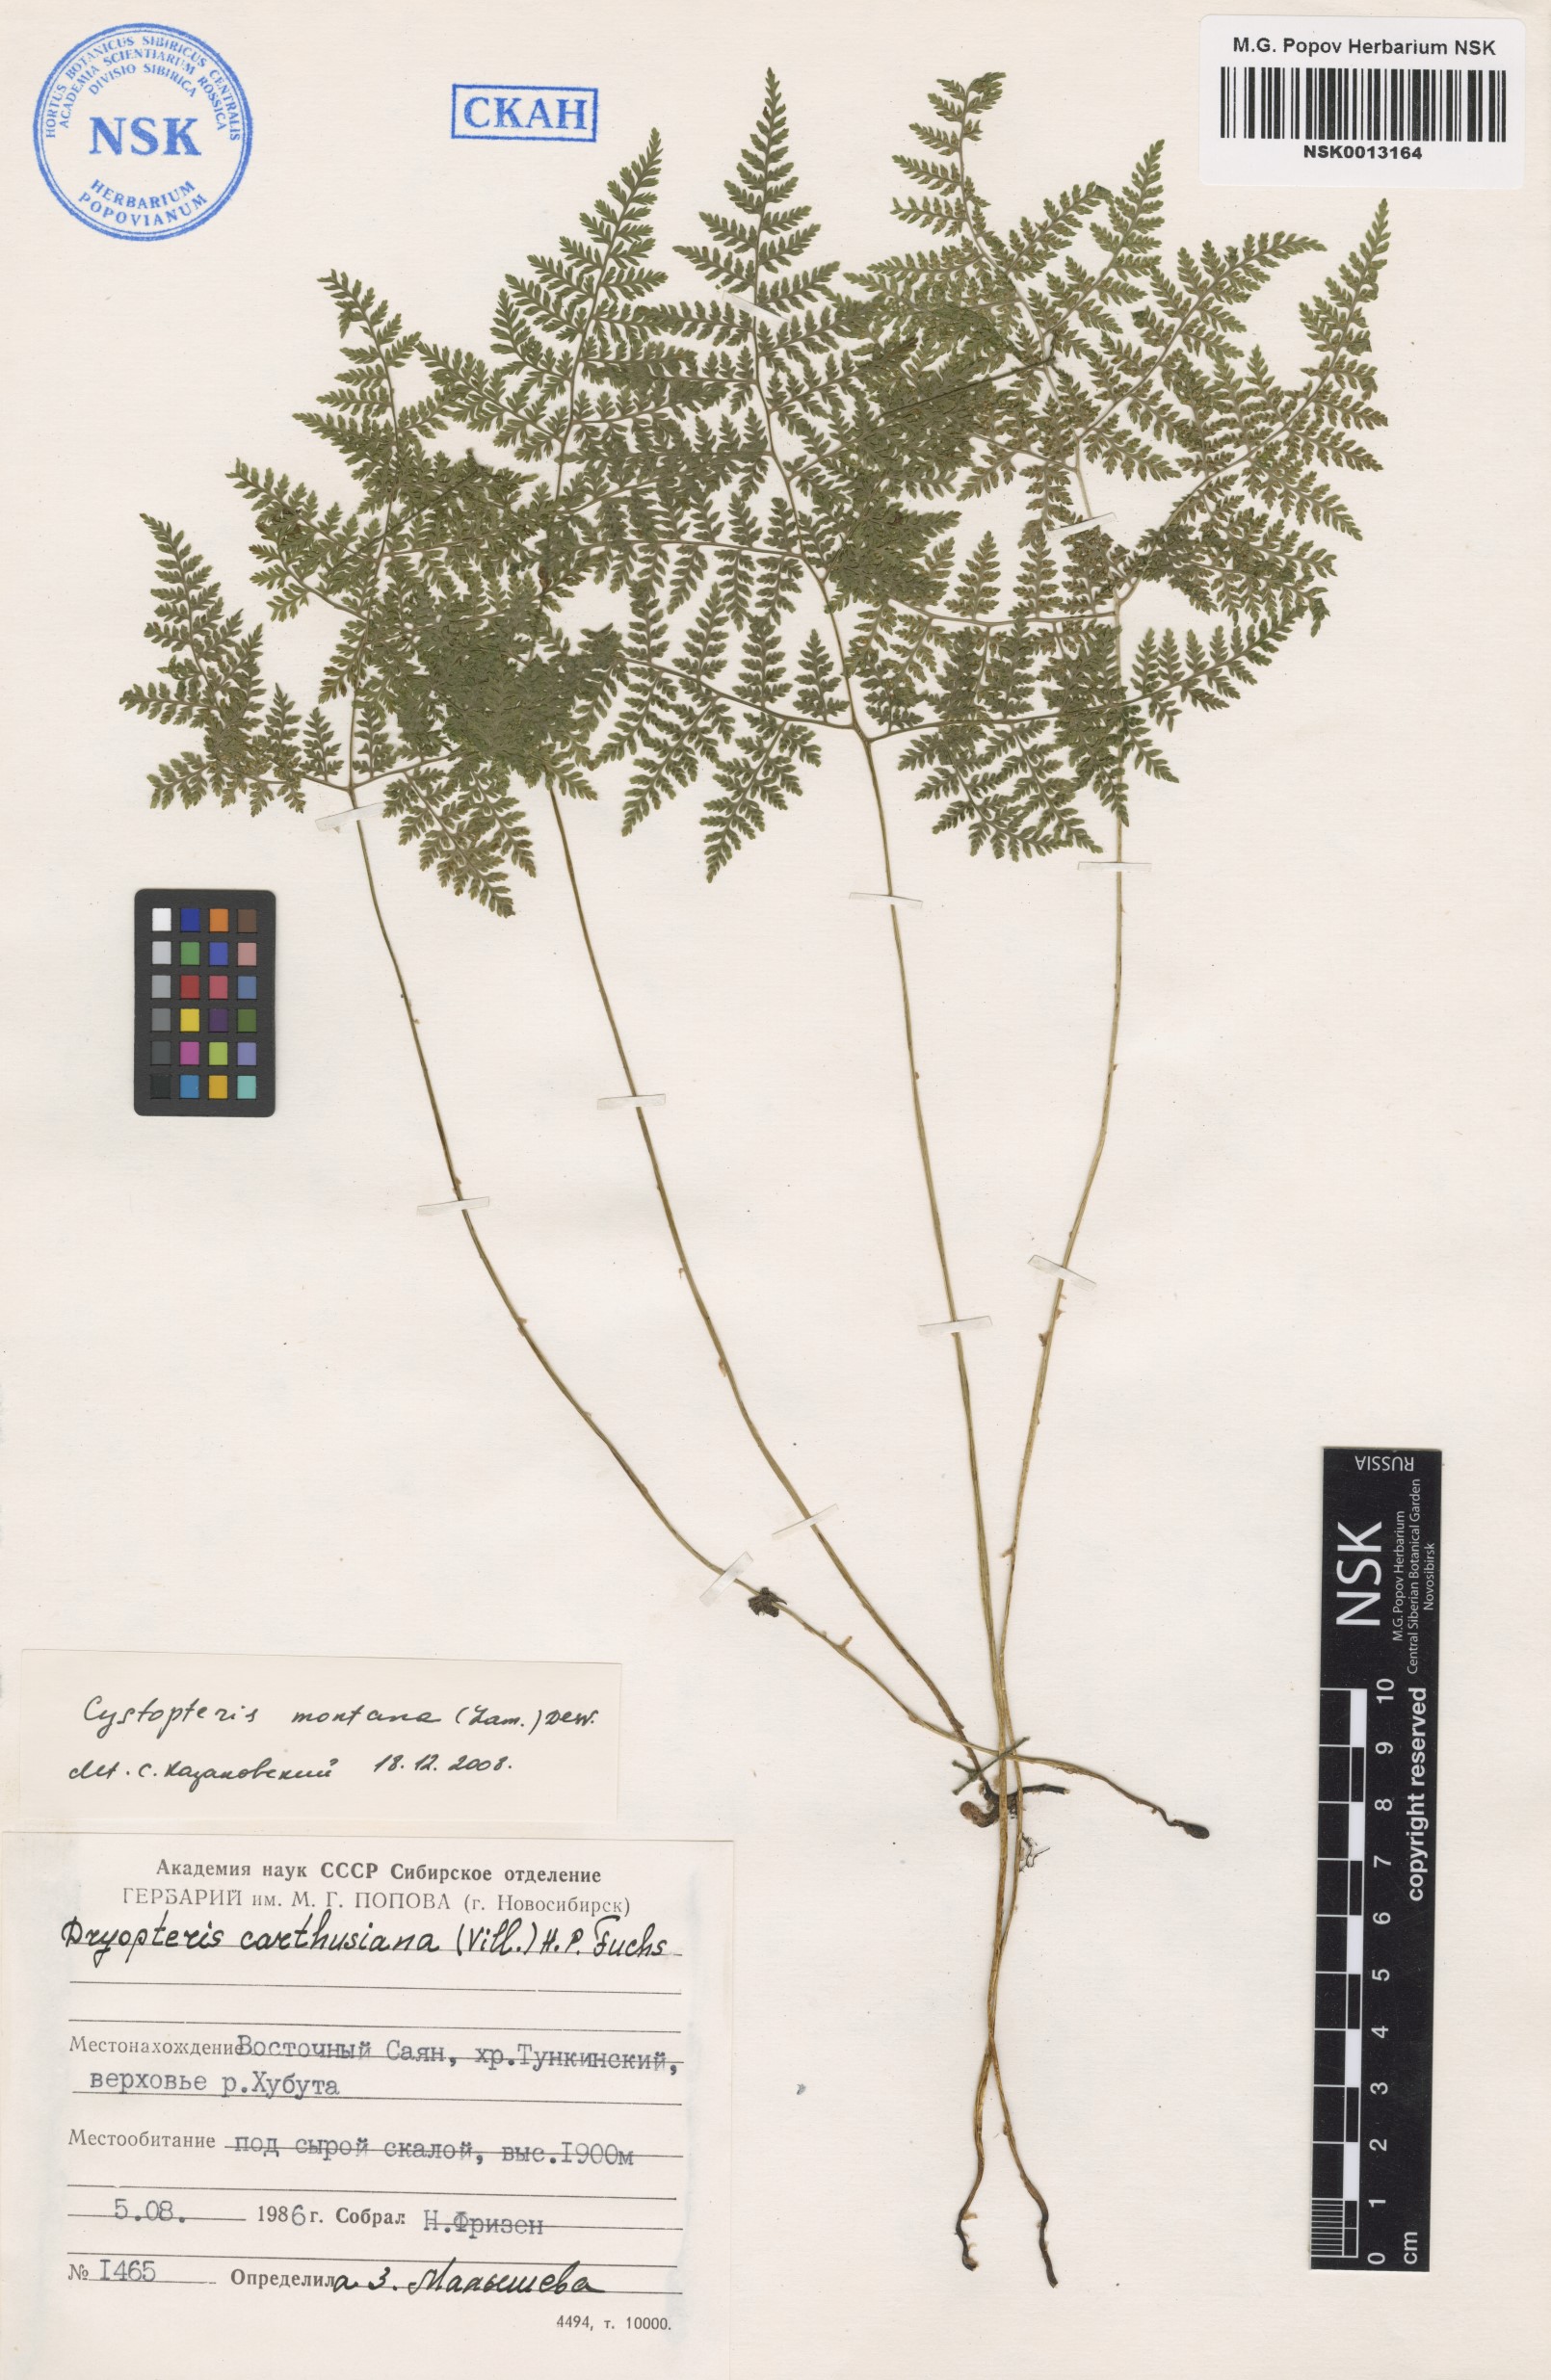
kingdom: Plantae
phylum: Tracheophyta
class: Polypodiopsida
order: Polypodiales
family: Cystopteridaceae
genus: Cystopteris
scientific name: Cystopteris montana
